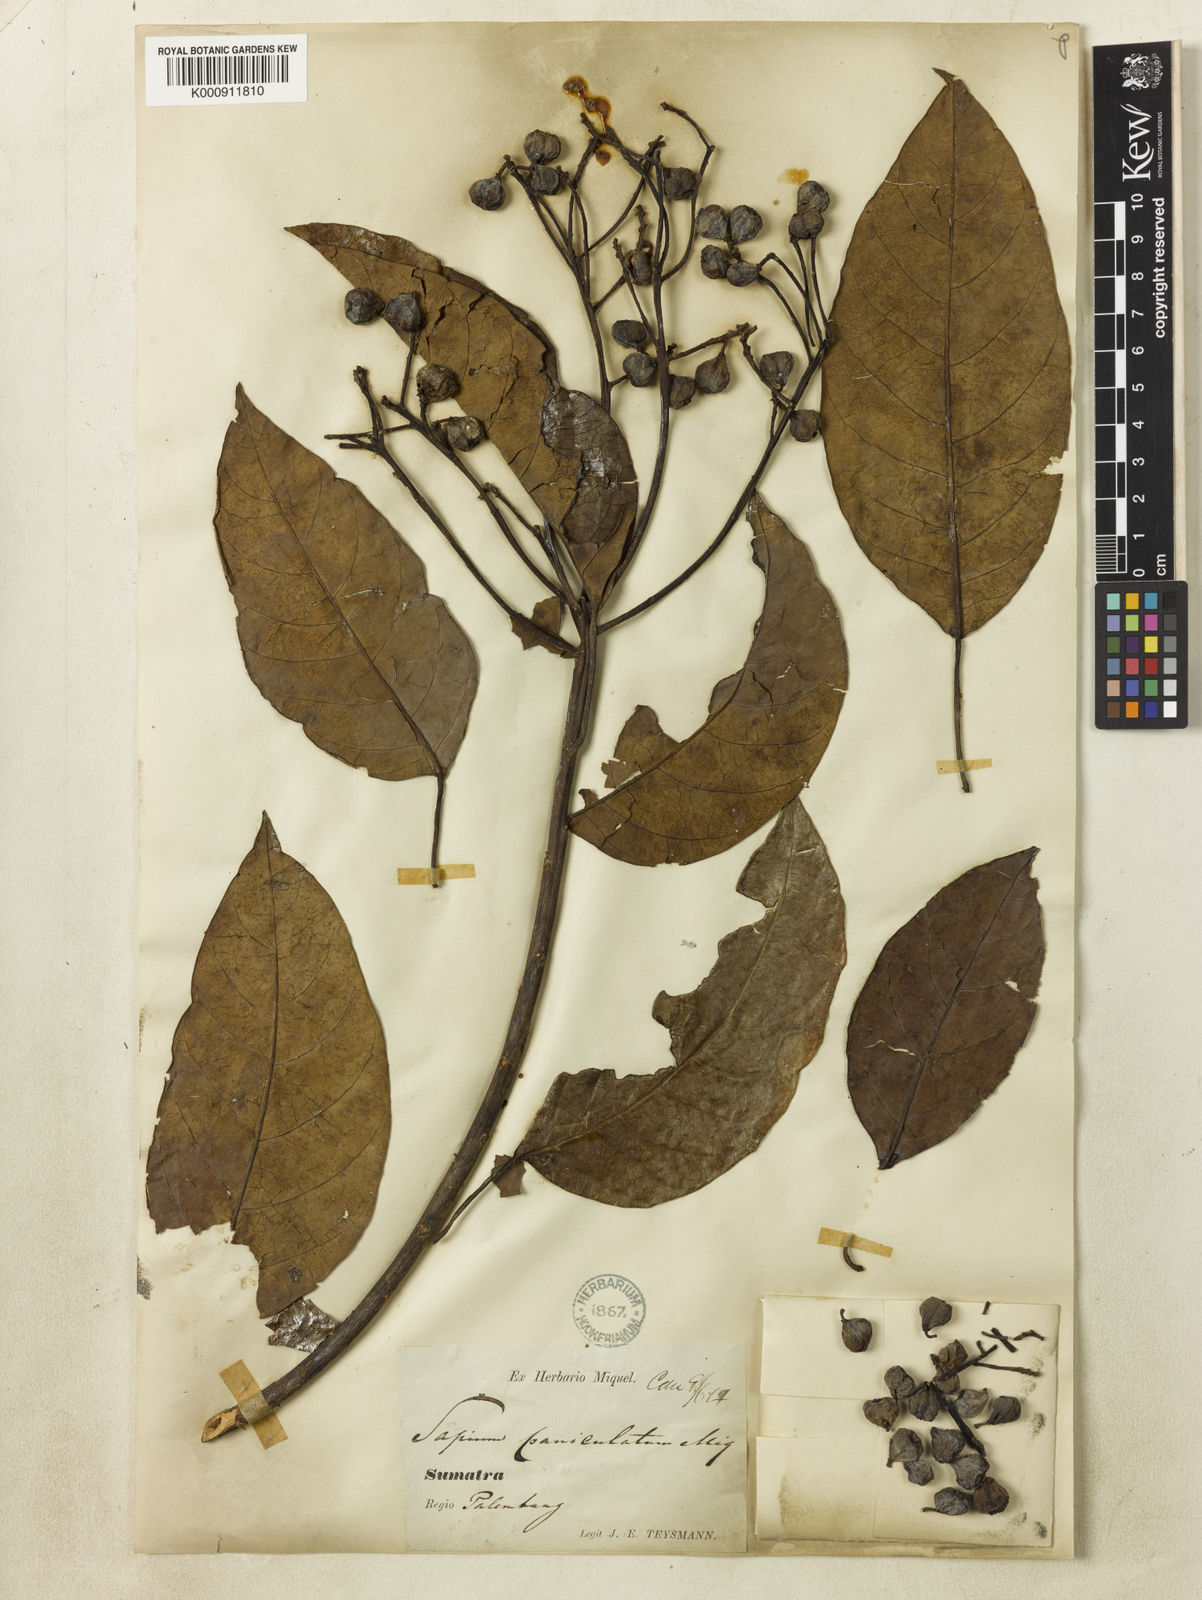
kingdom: Plantae
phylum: Tracheophyta
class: Magnoliopsida
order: Malpighiales
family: Euphorbiaceae
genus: Balakata
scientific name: Balakata baccata
